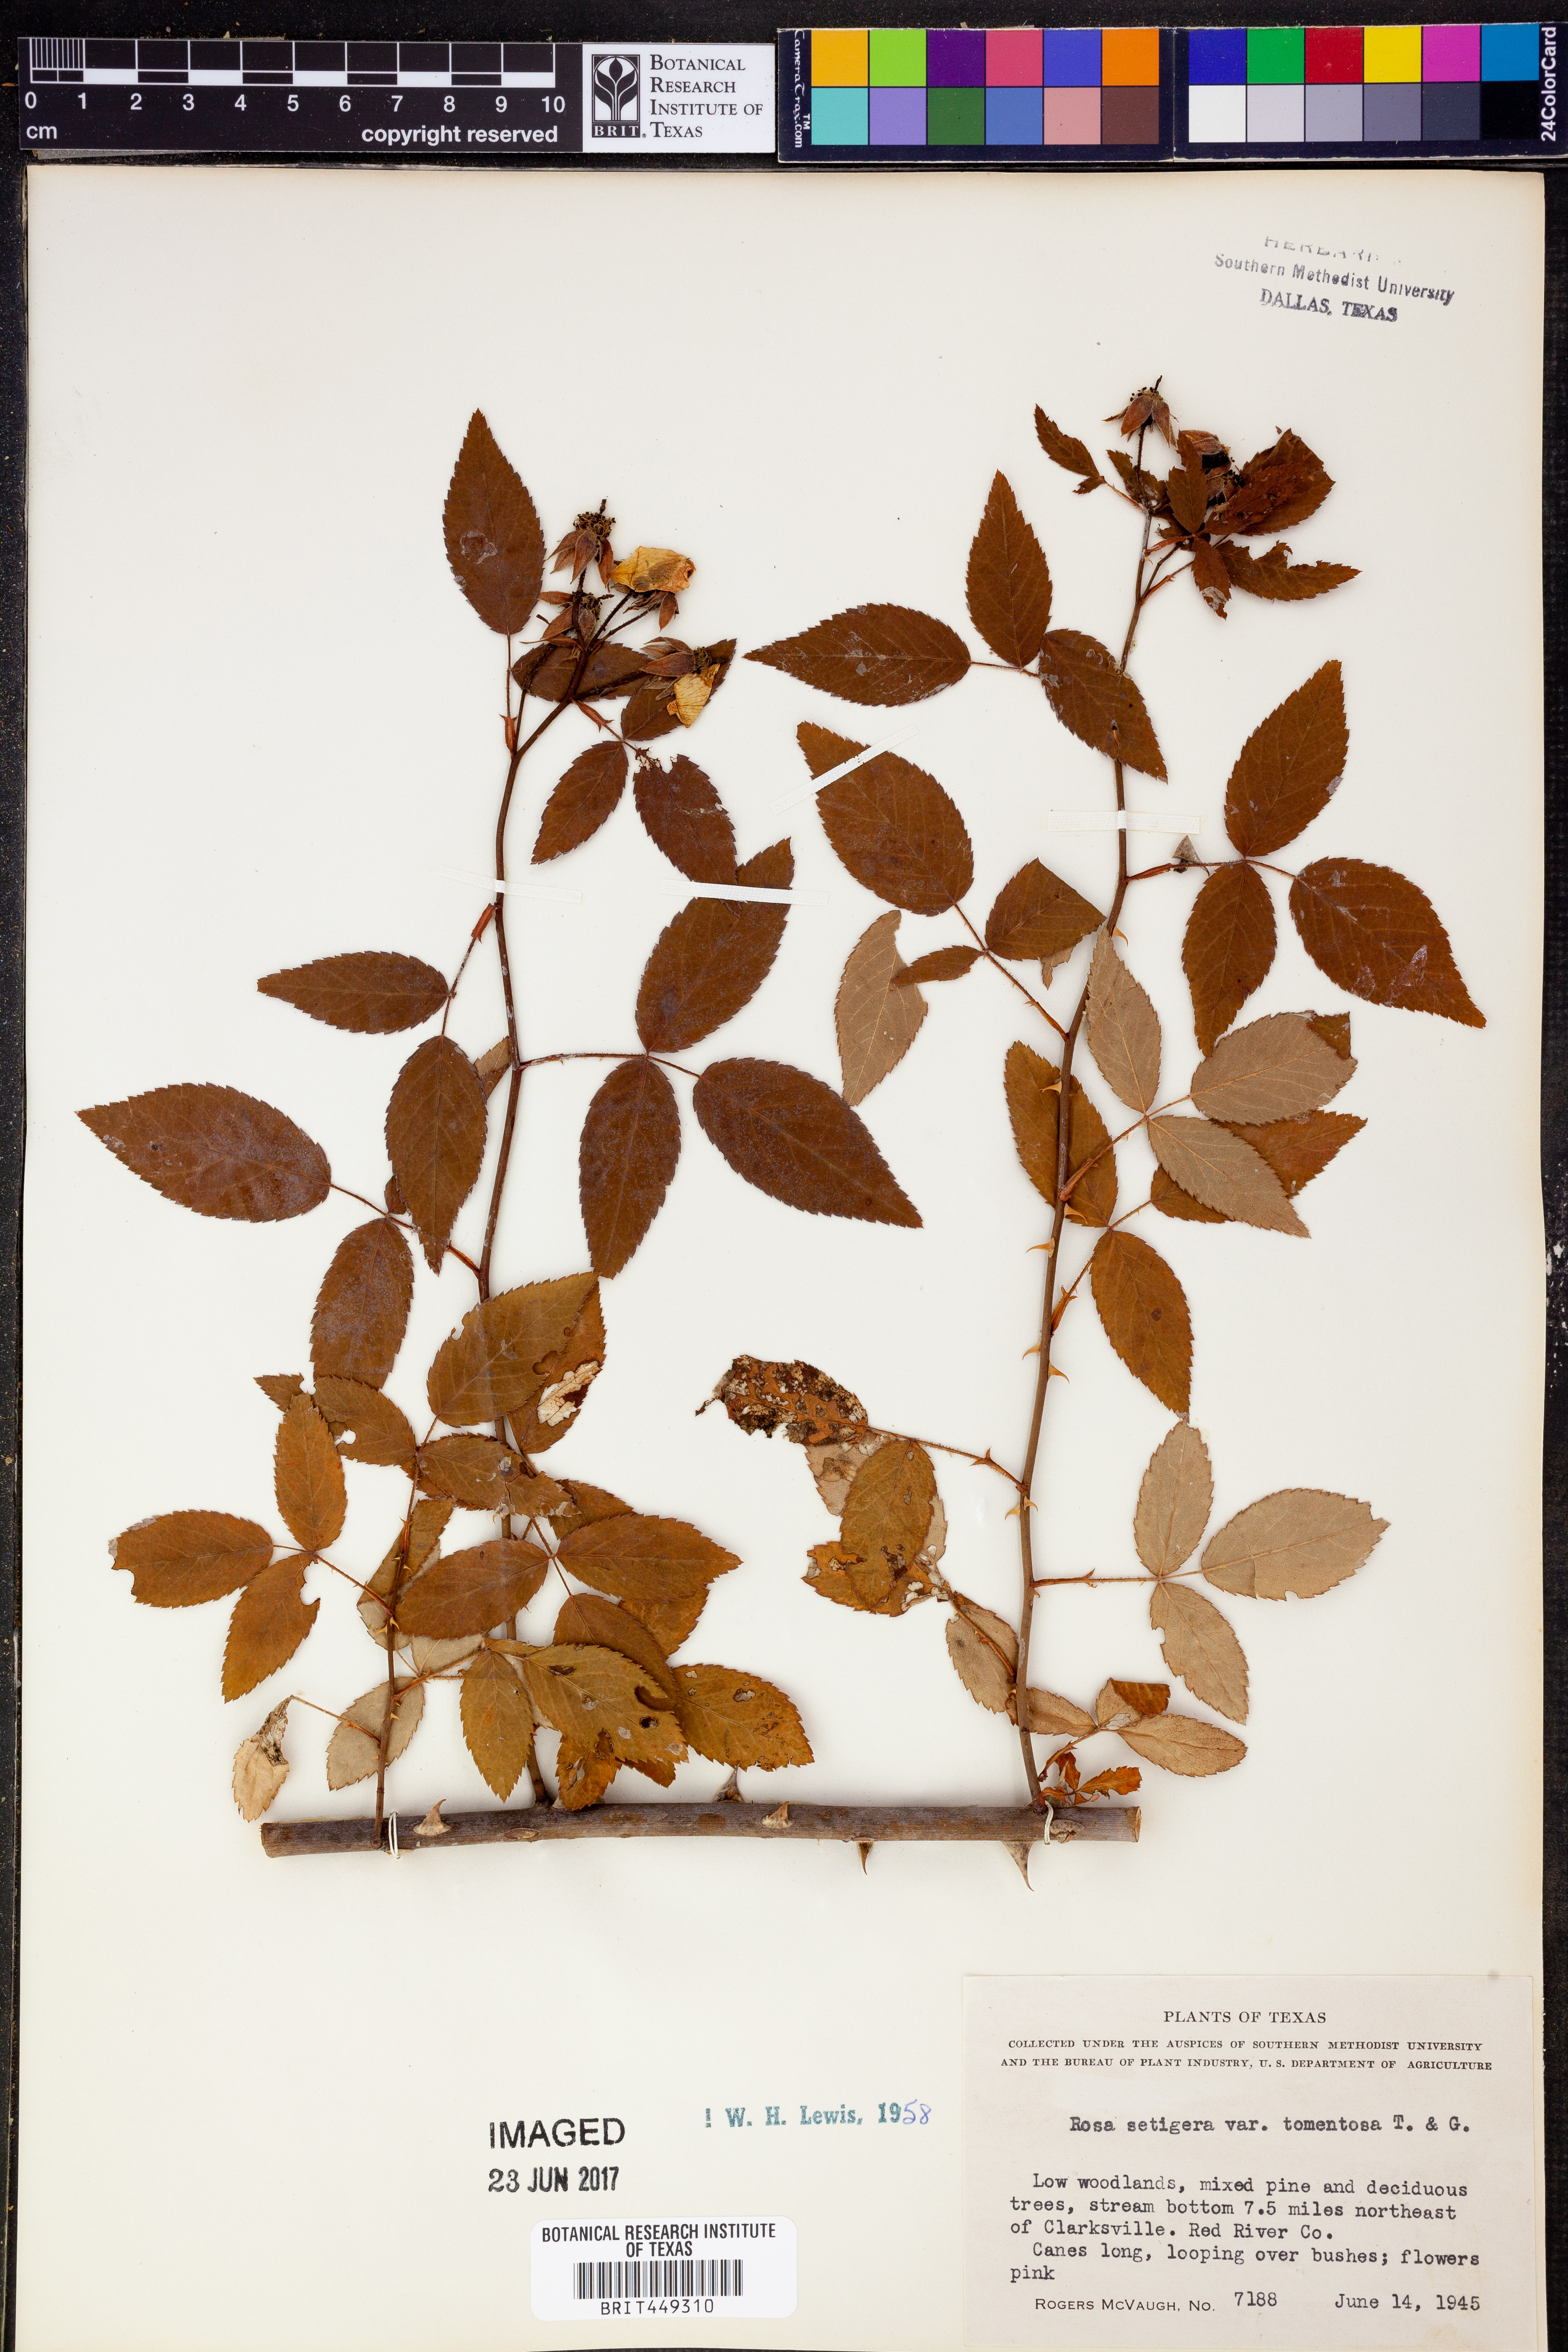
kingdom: Plantae
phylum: Tracheophyta
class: Magnoliopsida
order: Rosales
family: Rosaceae
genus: Rosa
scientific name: Rosa setigera
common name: Prairie rose
